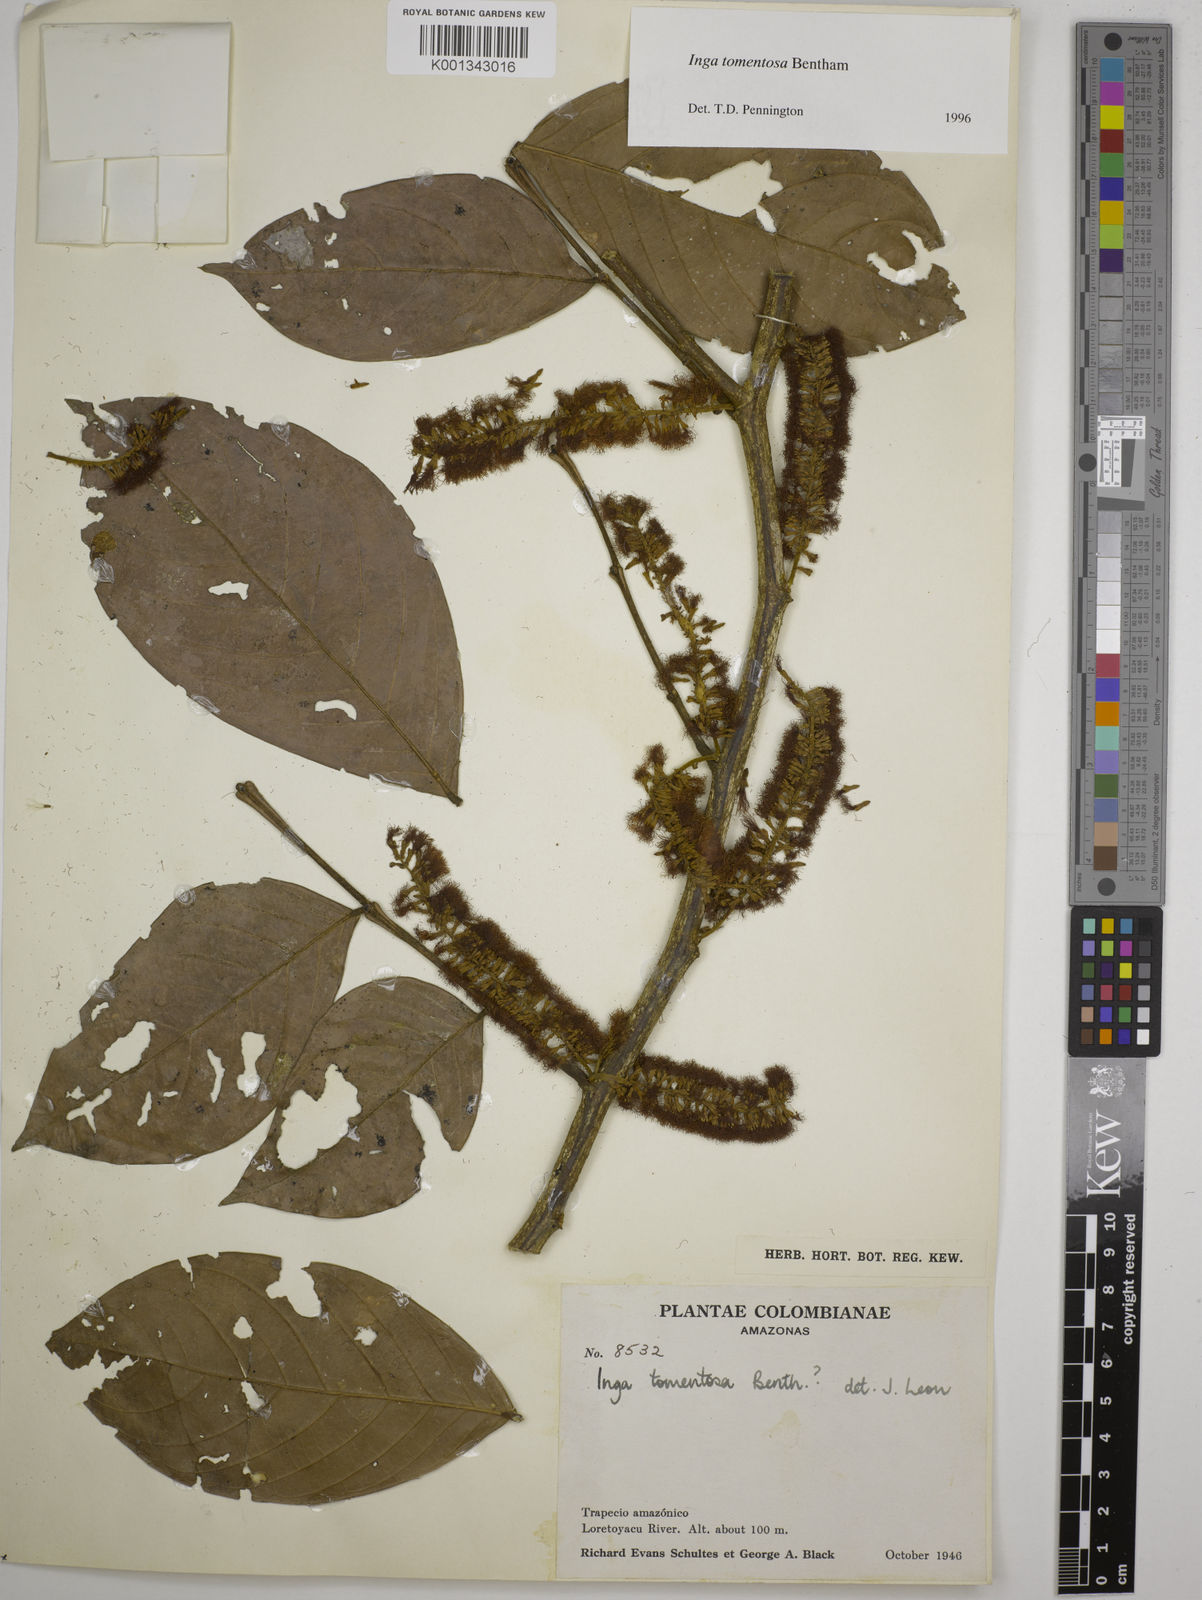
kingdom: Plantae
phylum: Tracheophyta
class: Magnoliopsida
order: Fabales
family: Fabaceae
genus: Inga
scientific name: Inga tomentosa
